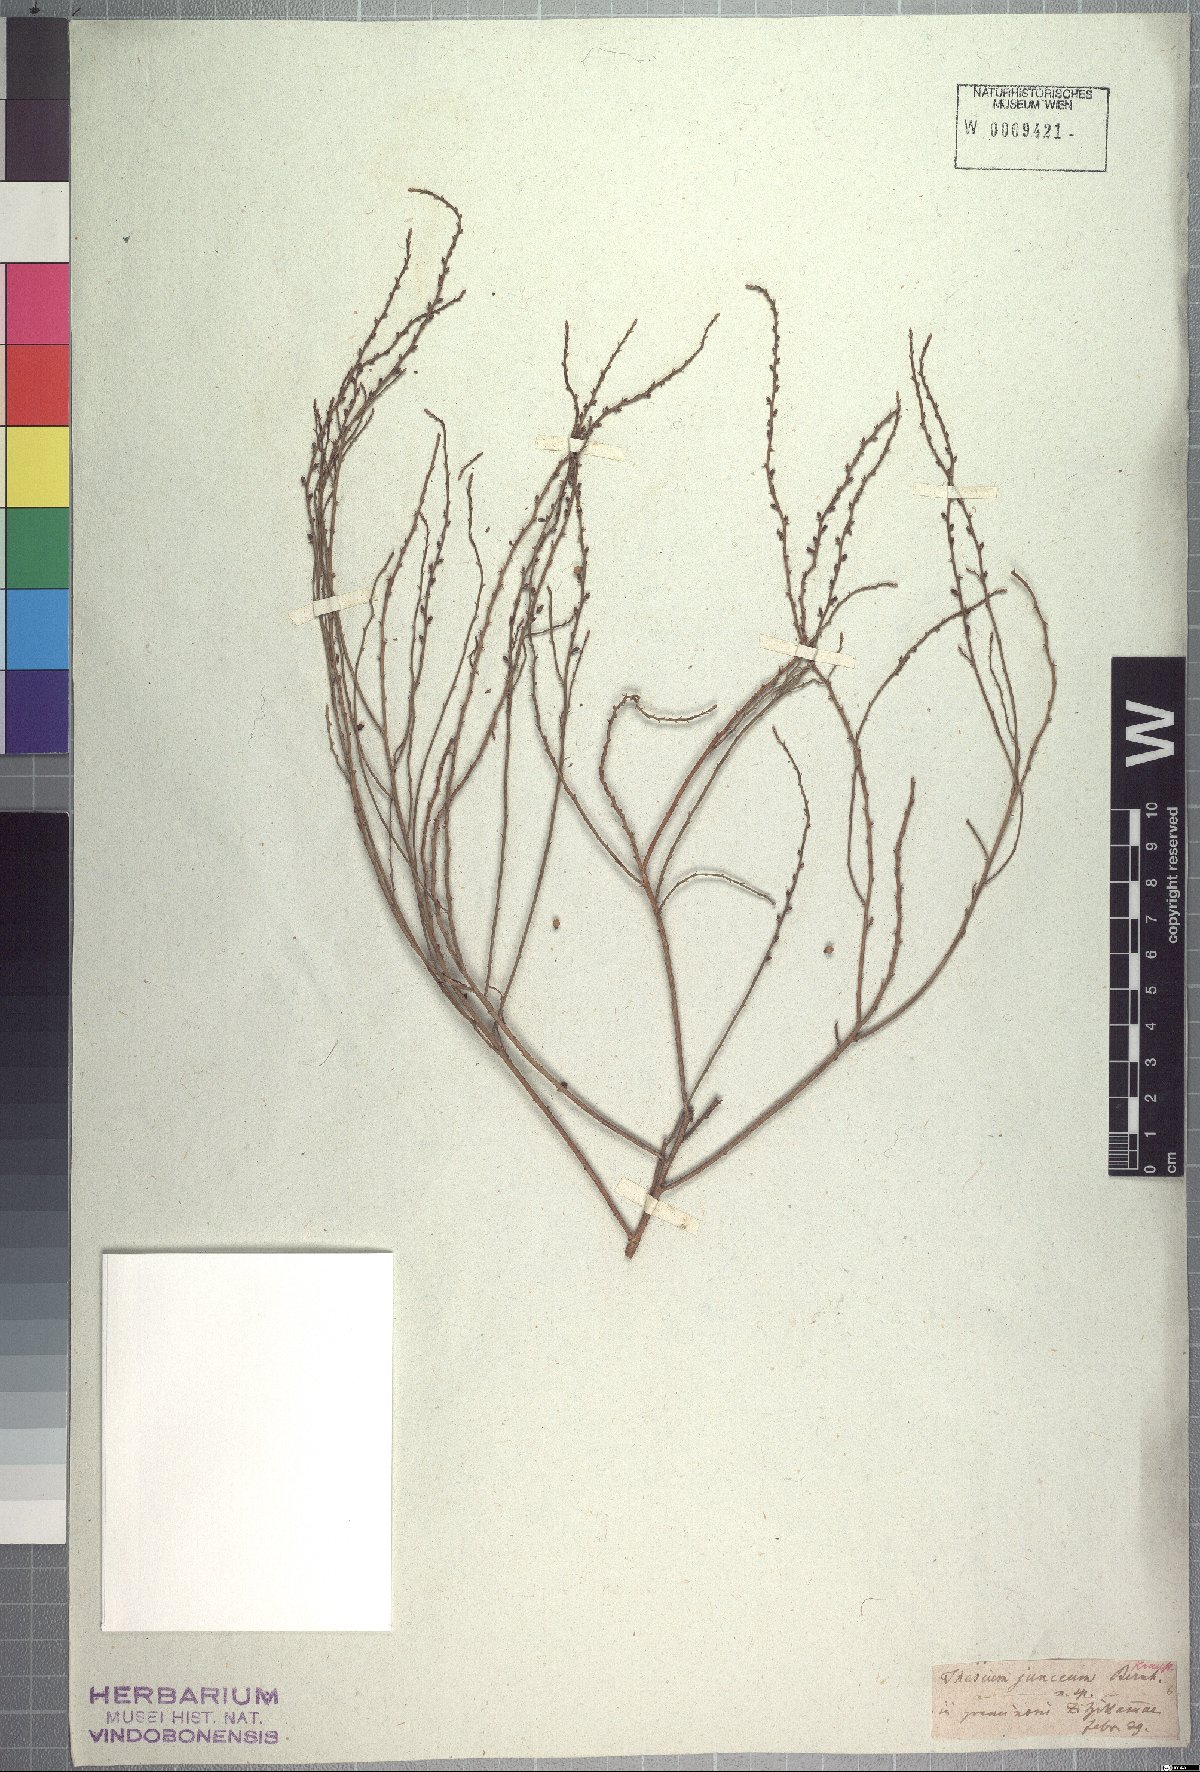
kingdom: Plantae
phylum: Tracheophyta
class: Magnoliopsida
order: Santalales
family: Thesiaceae
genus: Thesium
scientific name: Thesium junceum
